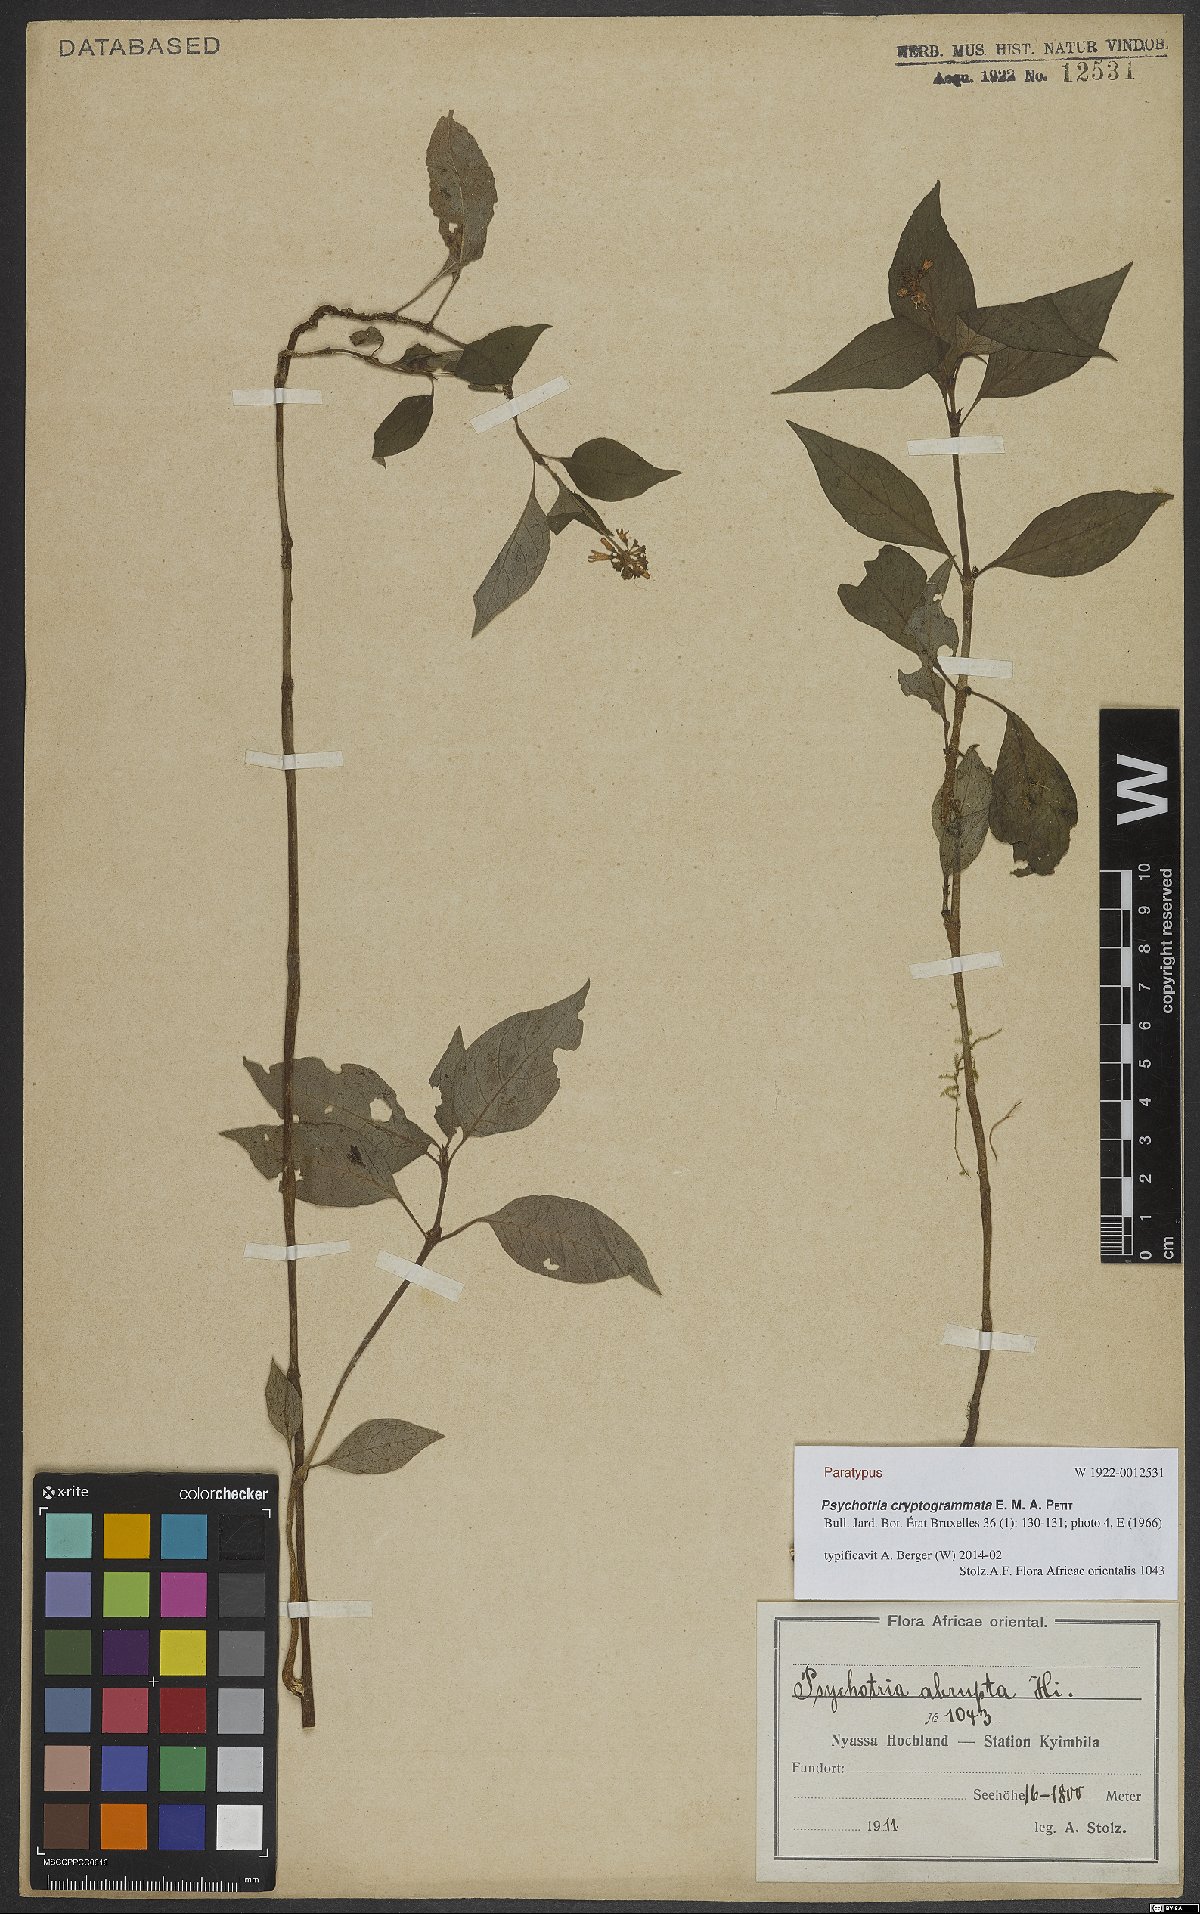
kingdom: Plantae
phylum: Tracheophyta
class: Magnoliopsida
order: Gentianales
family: Rubiaceae
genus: Psychotria
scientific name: Psychotria cryptogrammata
